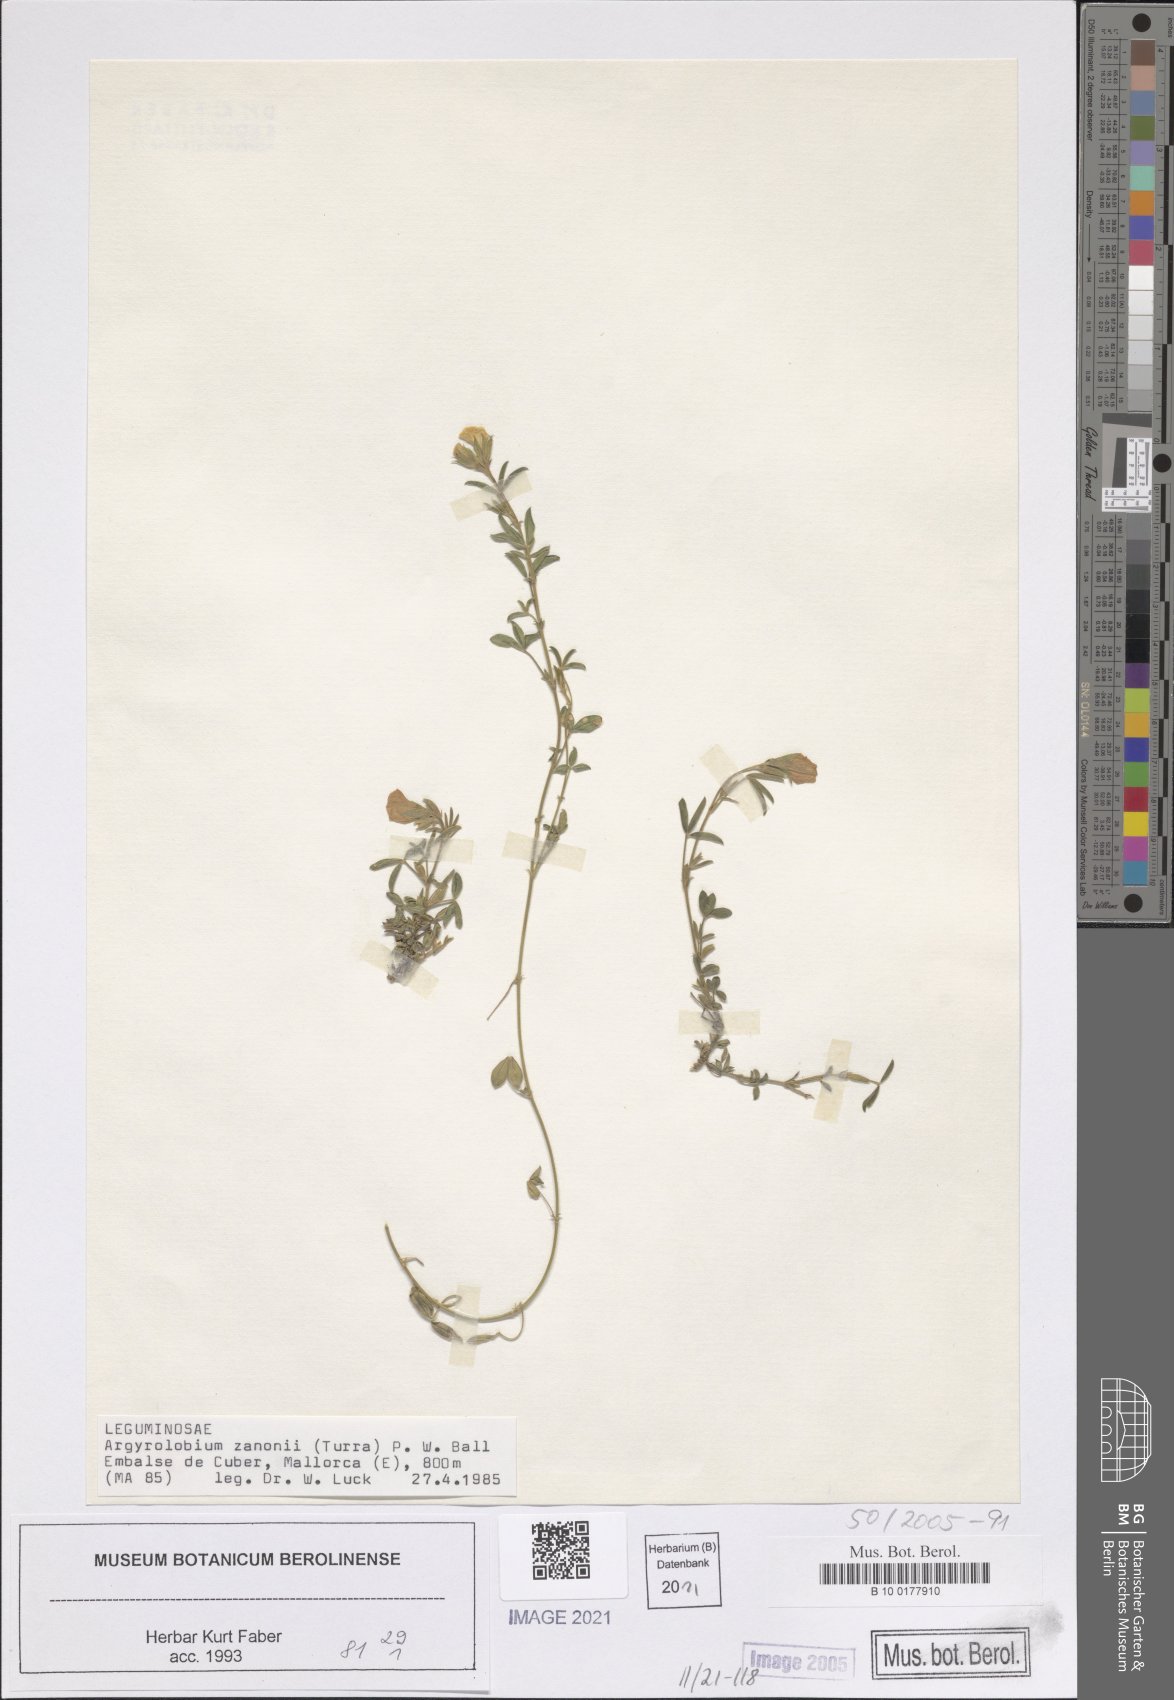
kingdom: Plantae
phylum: Tracheophyta
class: Magnoliopsida
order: Fabales
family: Fabaceae
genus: Argyrolobium
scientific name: Argyrolobium zanonii
